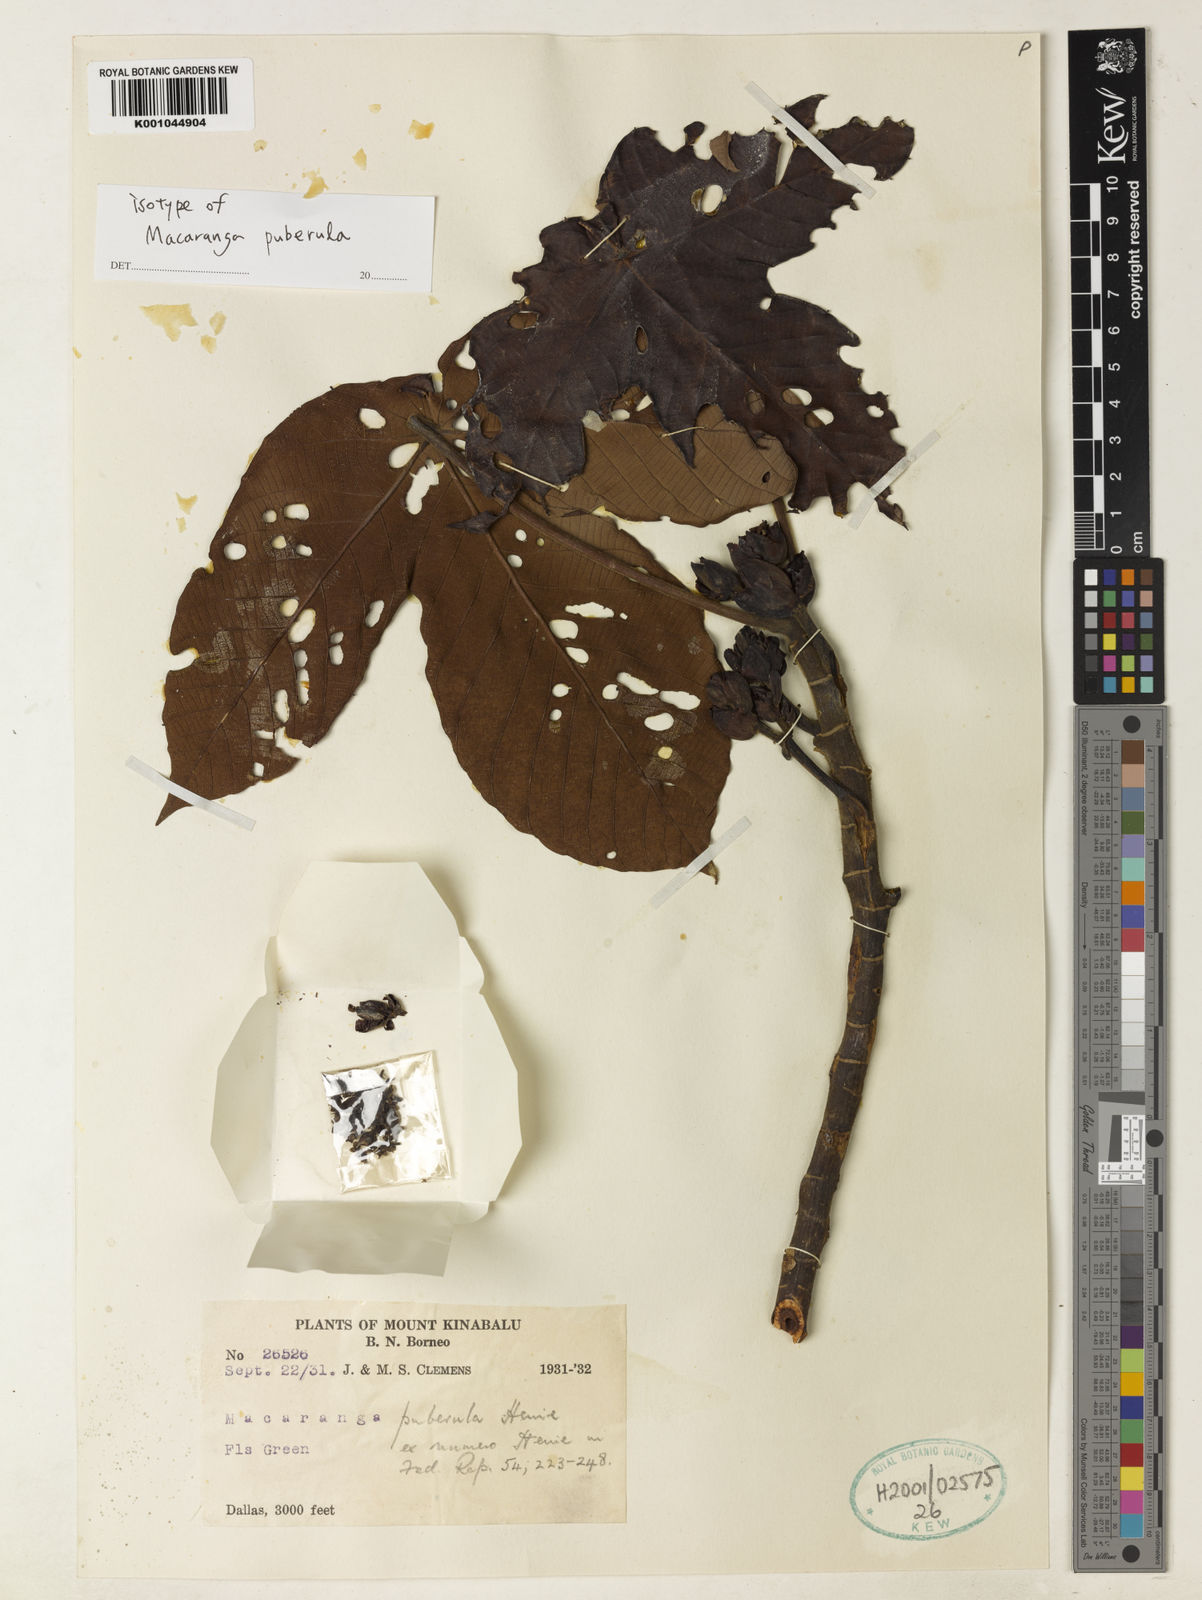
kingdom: Plantae
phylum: Tracheophyta
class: Magnoliopsida
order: Malpighiales
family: Euphorbiaceae
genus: Macaranga
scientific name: Macaranga puberula
